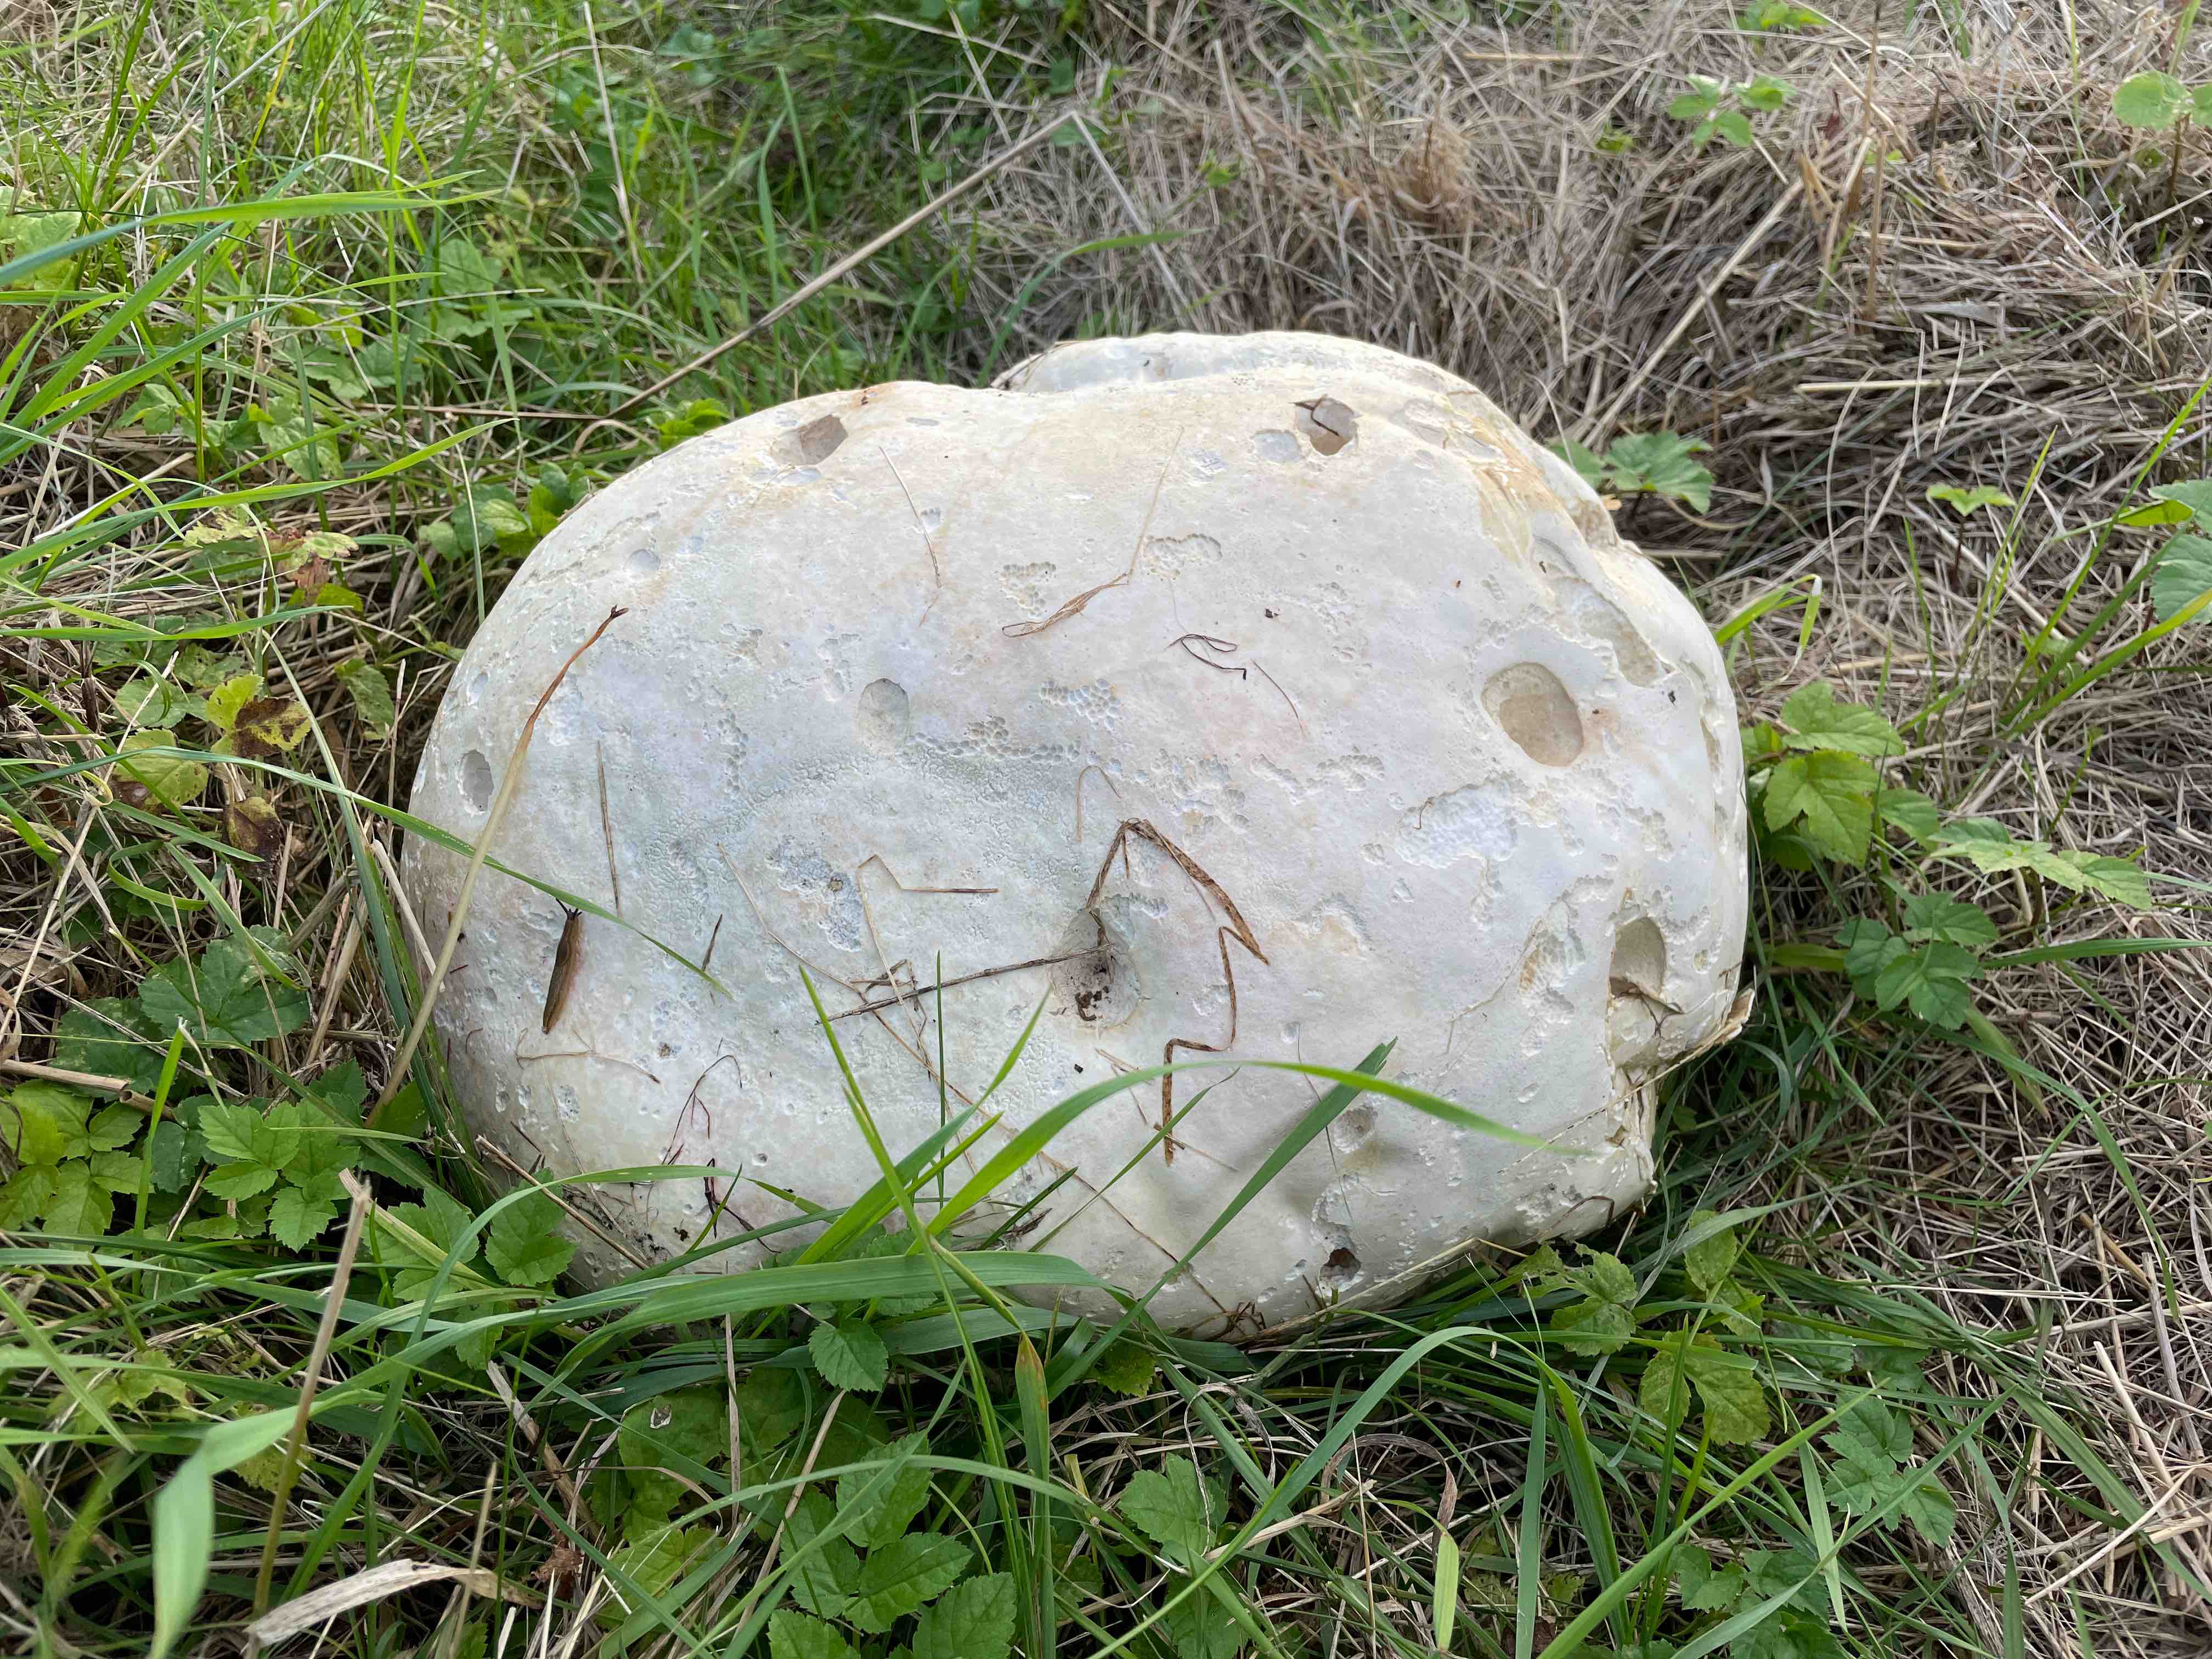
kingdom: Fungi
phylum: Basidiomycota
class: Agaricomycetes
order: Agaricales
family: Lycoperdaceae
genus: Calvatia
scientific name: Calvatia gigantea
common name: kæmpestøvbold
